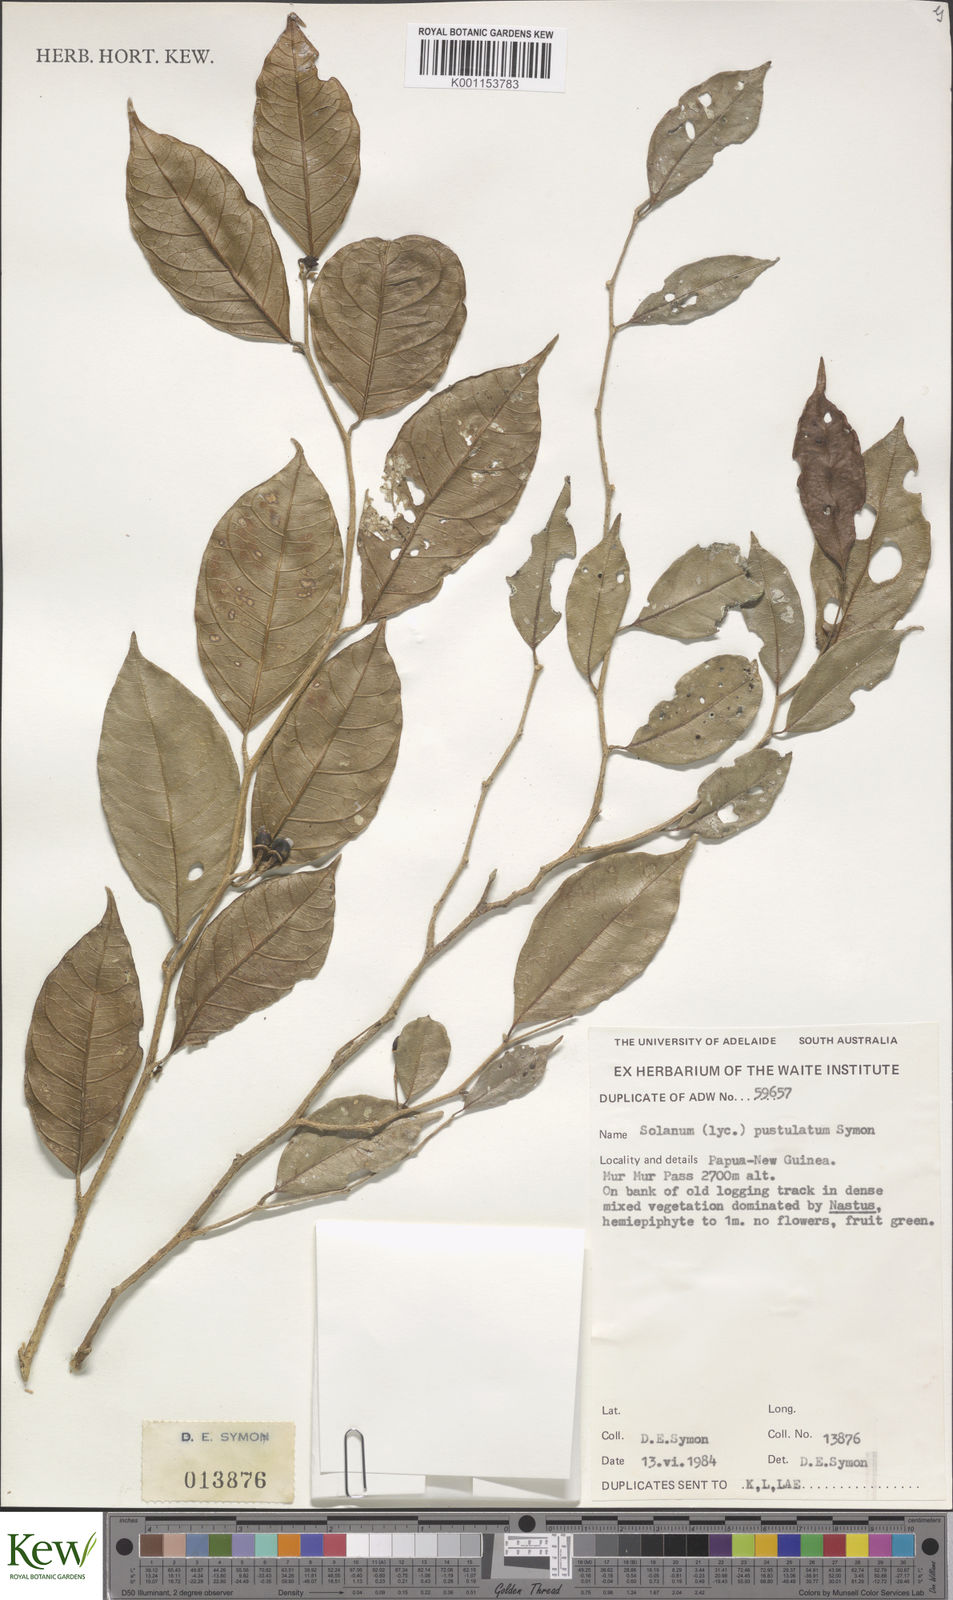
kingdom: Plantae
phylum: Tracheophyta
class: Magnoliopsida
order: Solanales
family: Solanaceae
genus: Lycianthes
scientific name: Lycianthes rostellata
